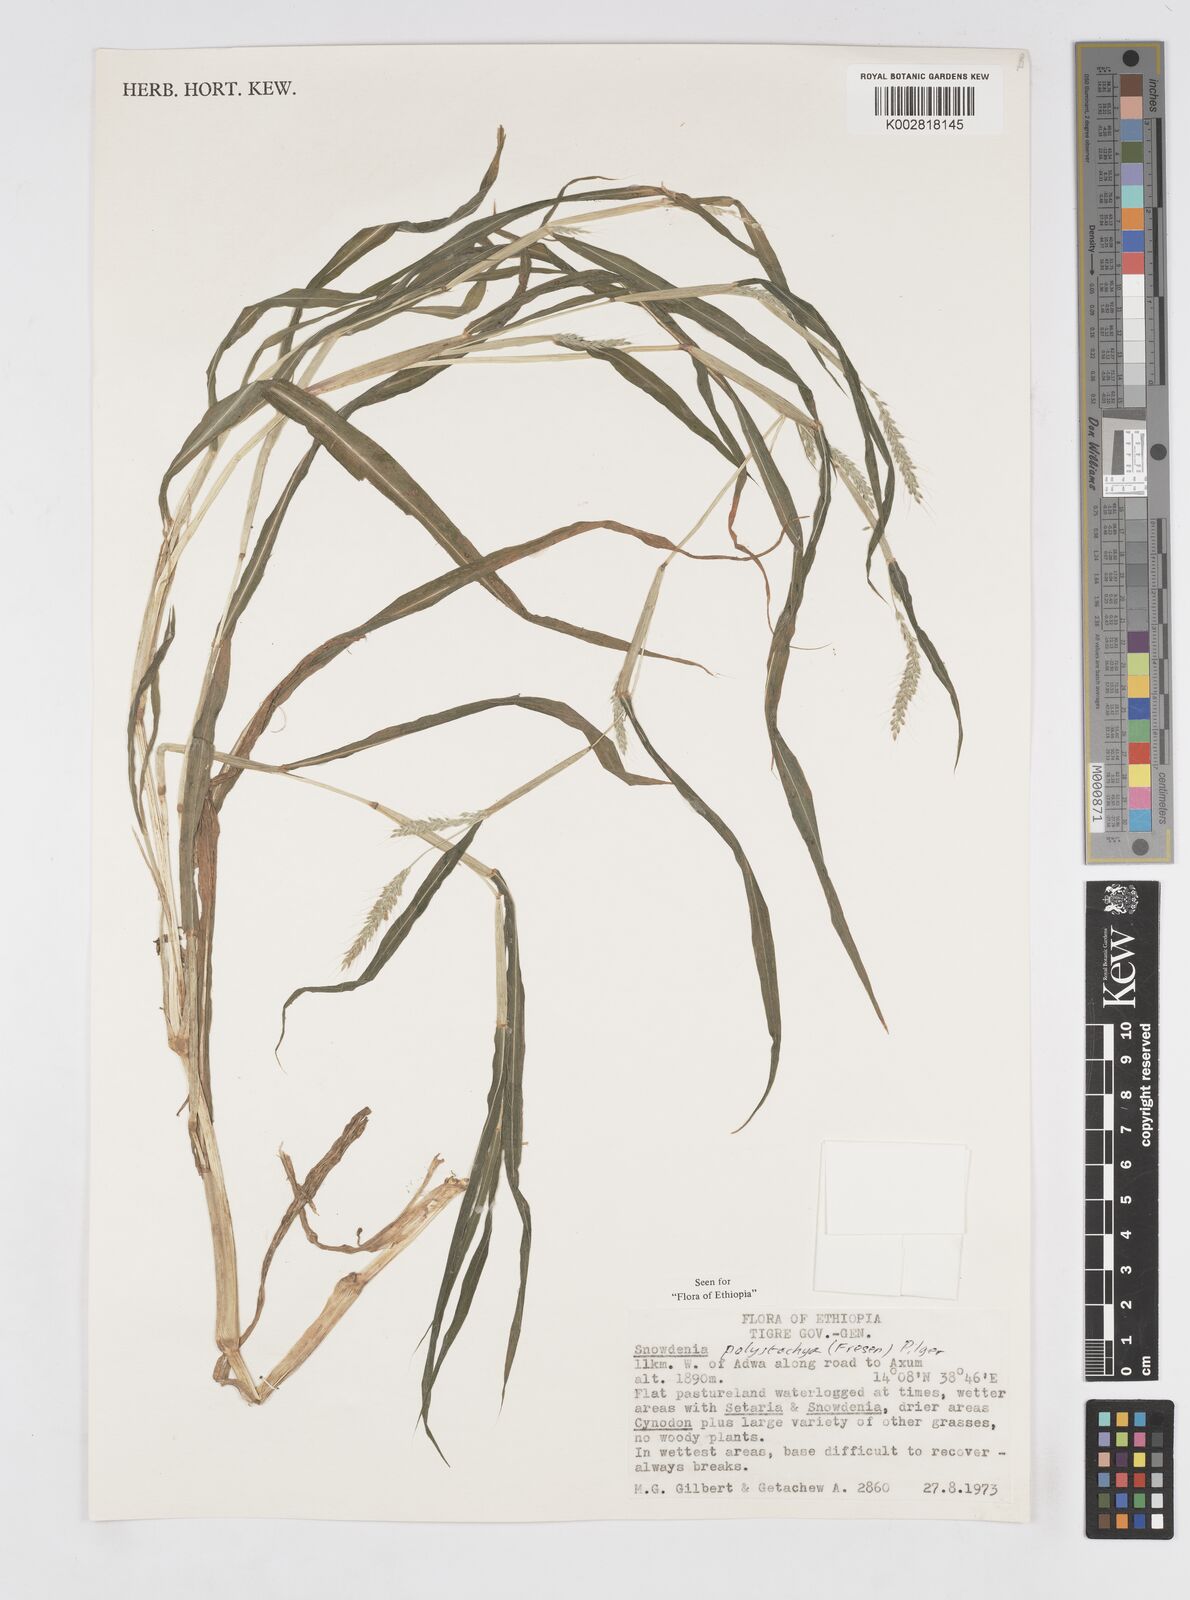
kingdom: Plantae
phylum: Tracheophyta
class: Liliopsida
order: Poales
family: Poaceae
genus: Snowdenia
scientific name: Snowdenia polystachya
